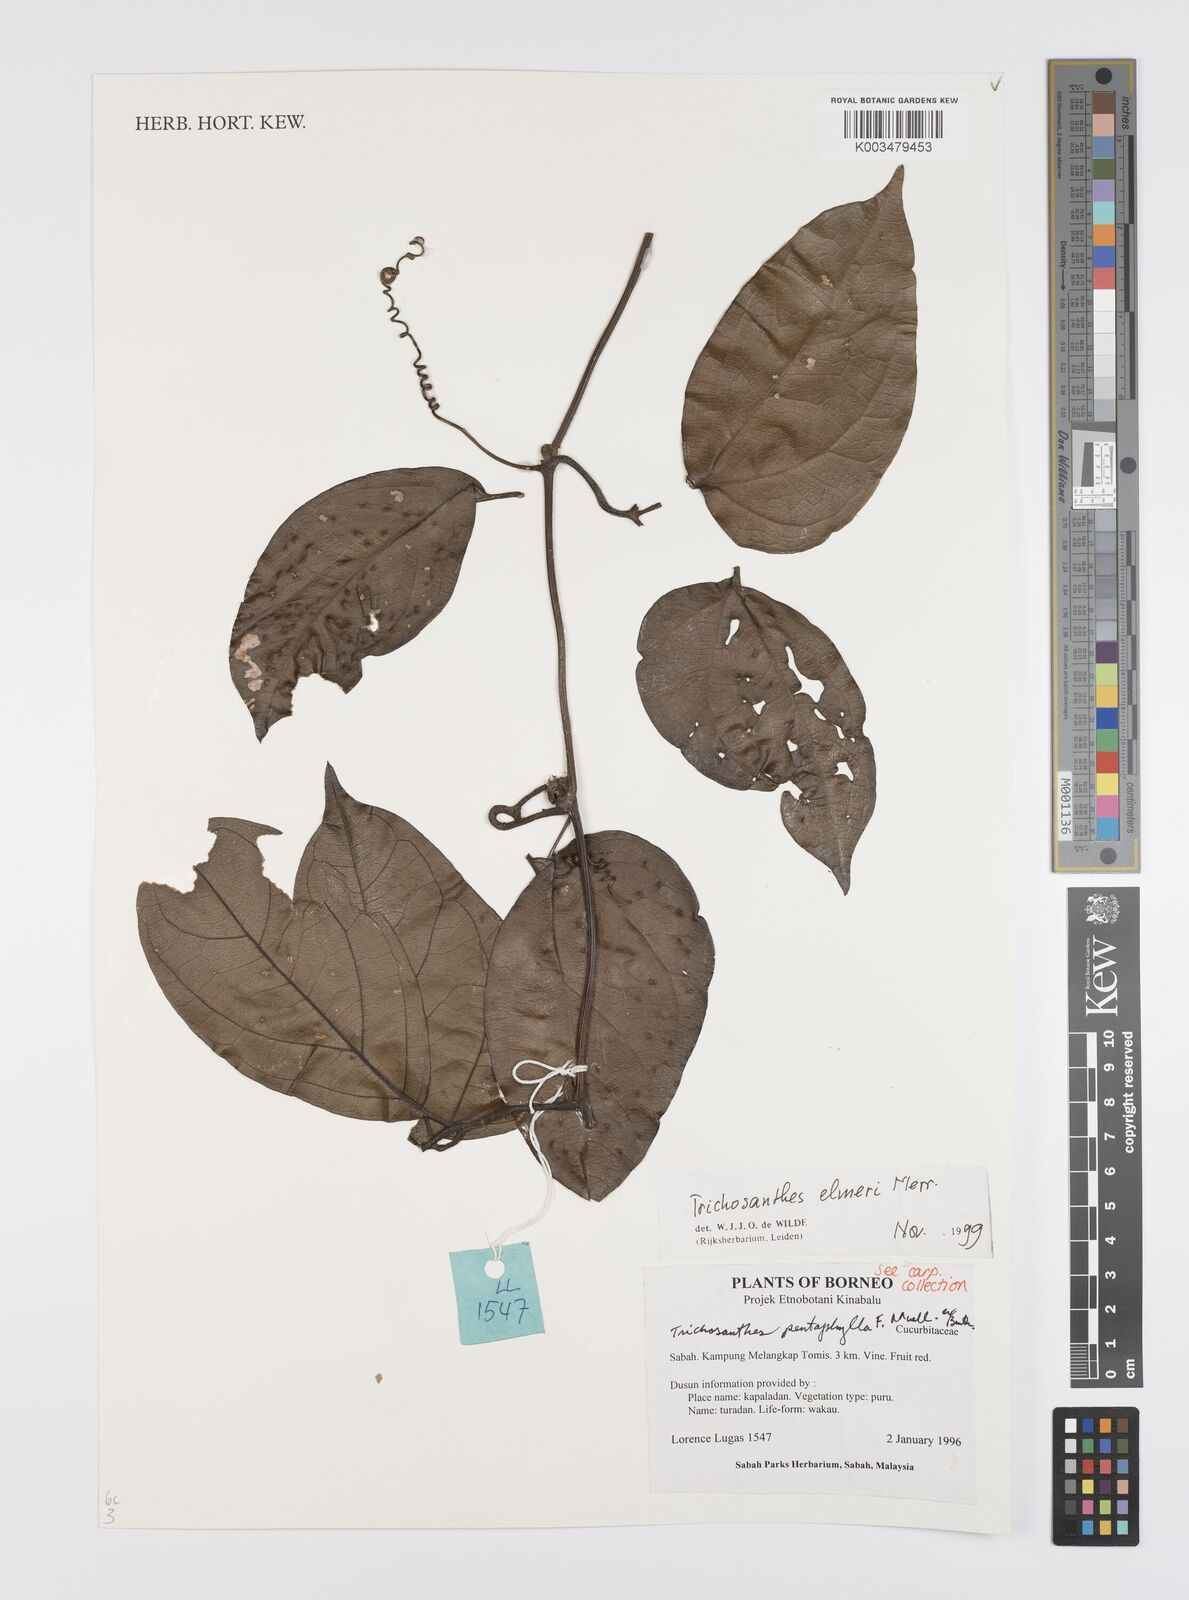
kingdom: Plantae
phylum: Tracheophyta
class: Magnoliopsida
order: Cucurbitales
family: Cucurbitaceae
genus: Trichosanthes
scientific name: Trichosanthes elmeri
